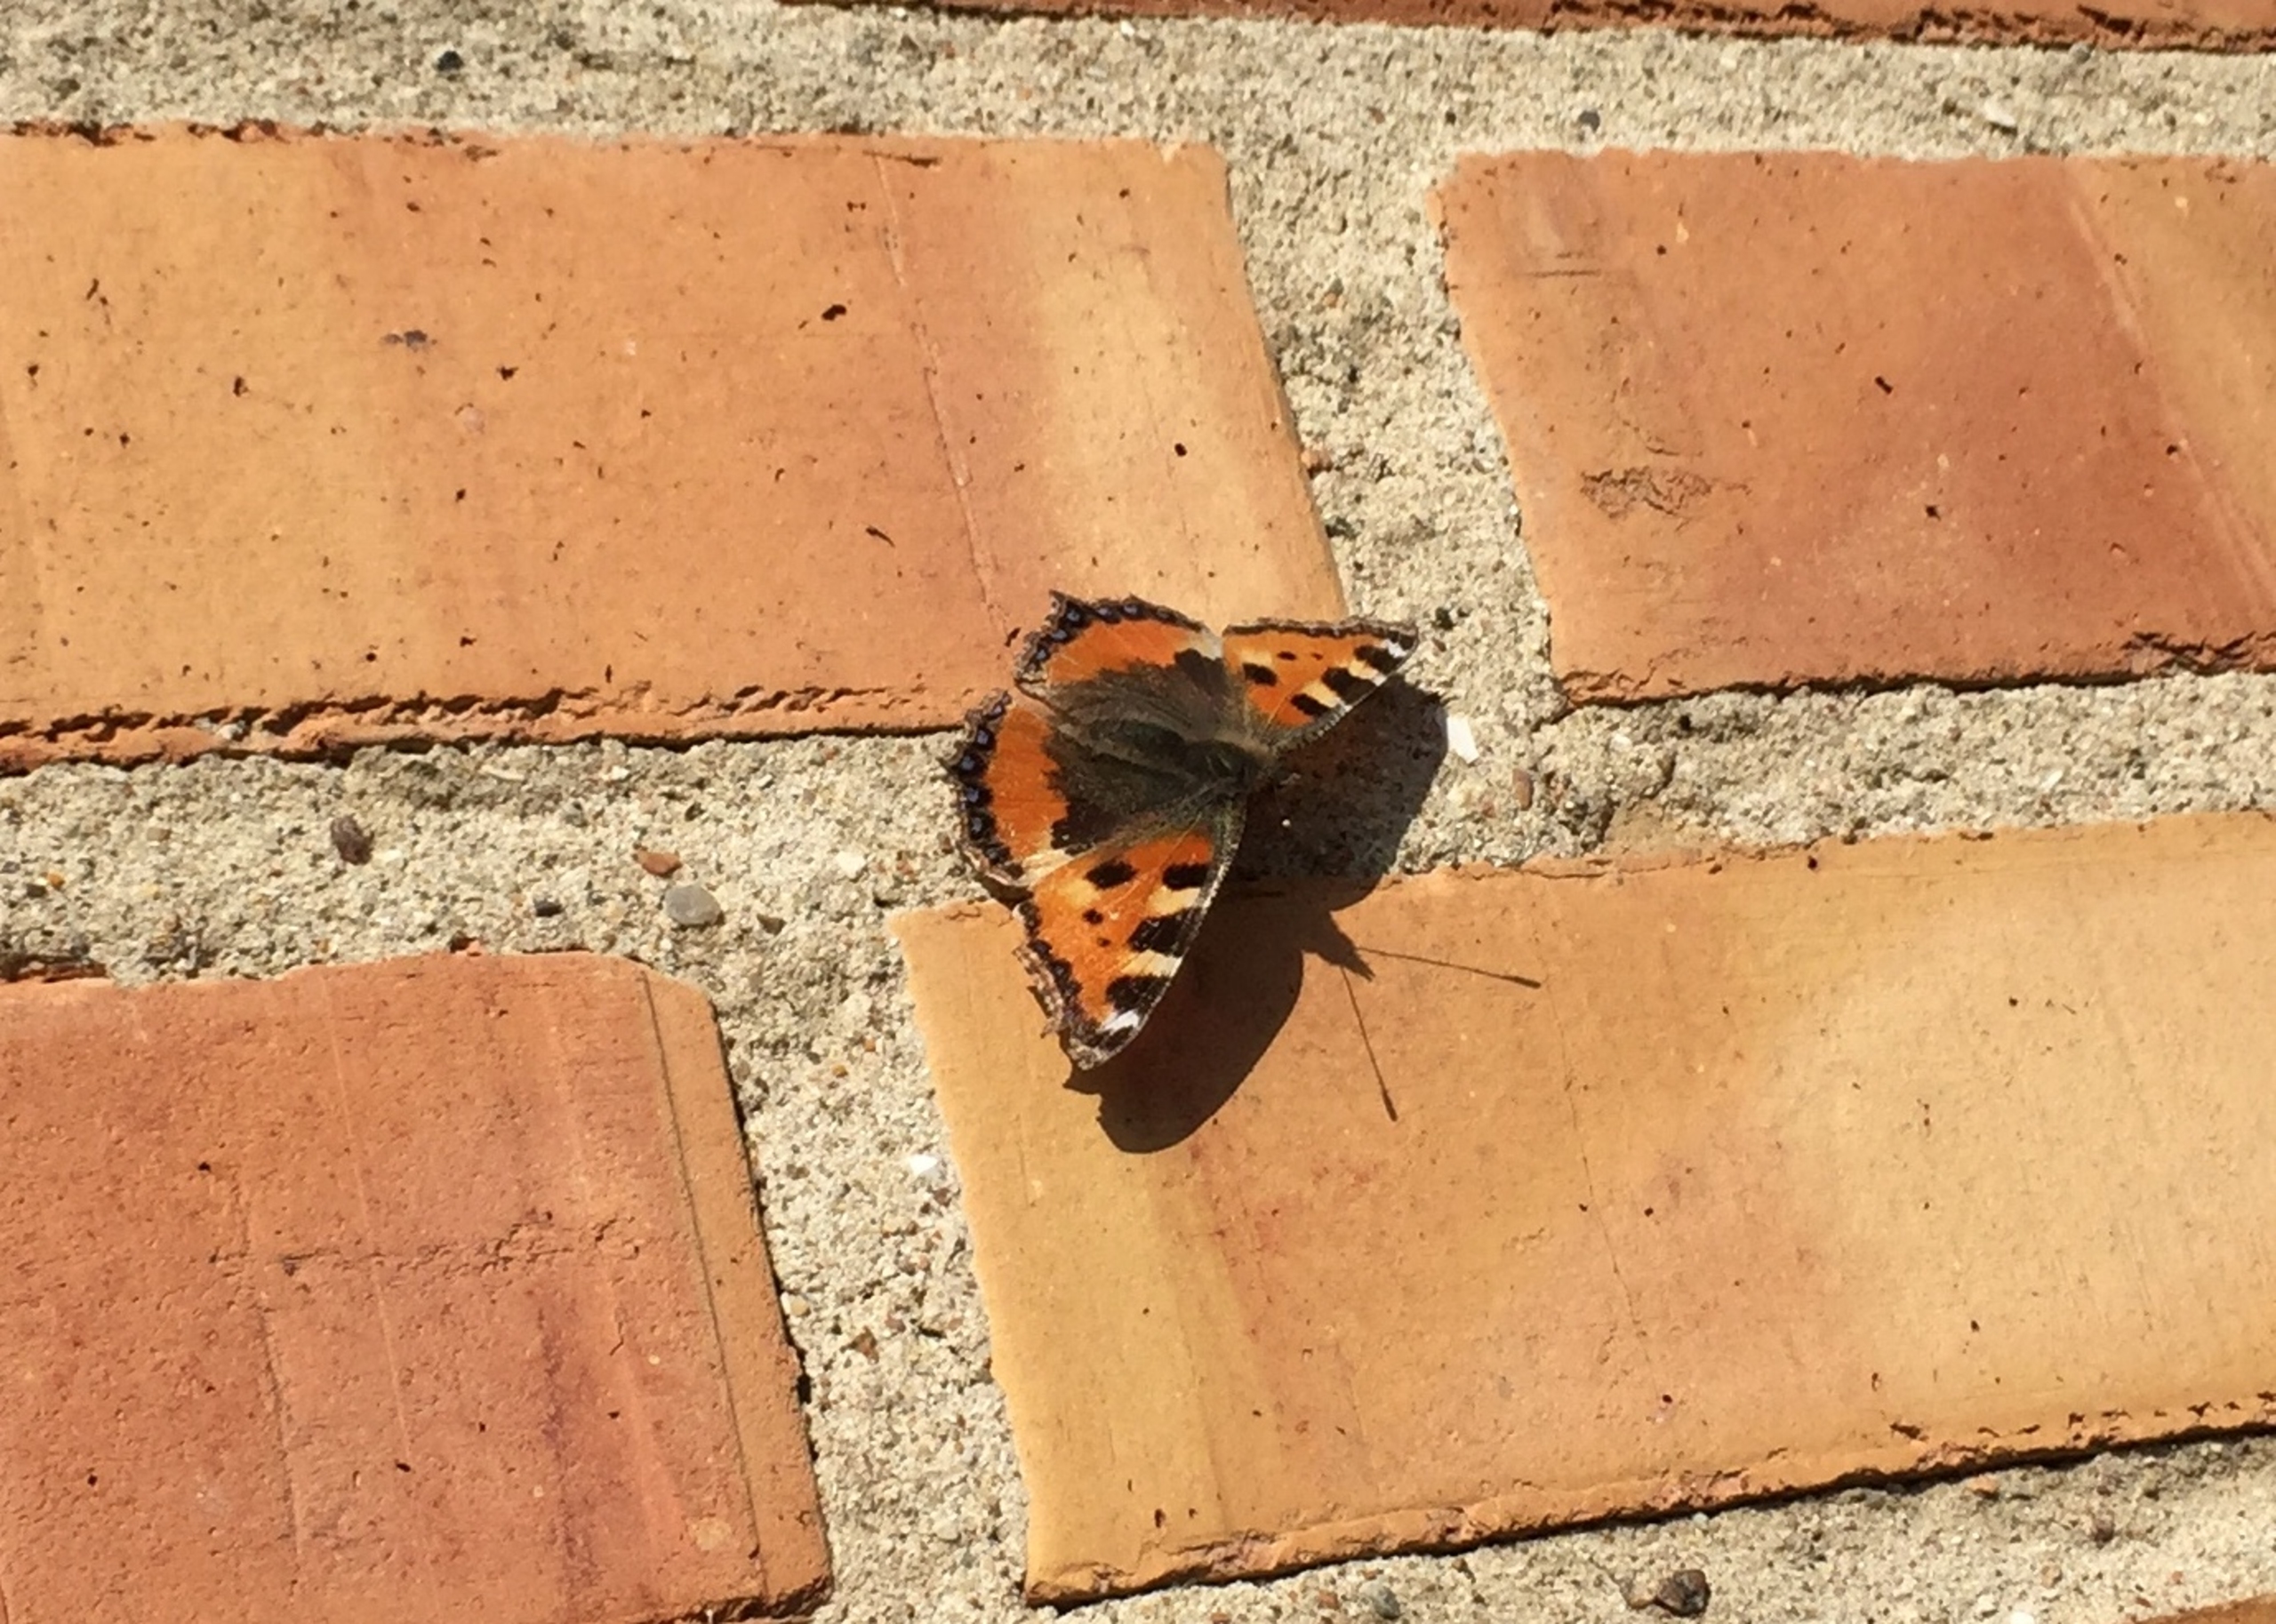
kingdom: Animalia
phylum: Arthropoda
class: Insecta
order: Lepidoptera
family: Nymphalidae
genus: Aglais
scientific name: Aglais urticae
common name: Nældens takvinge
